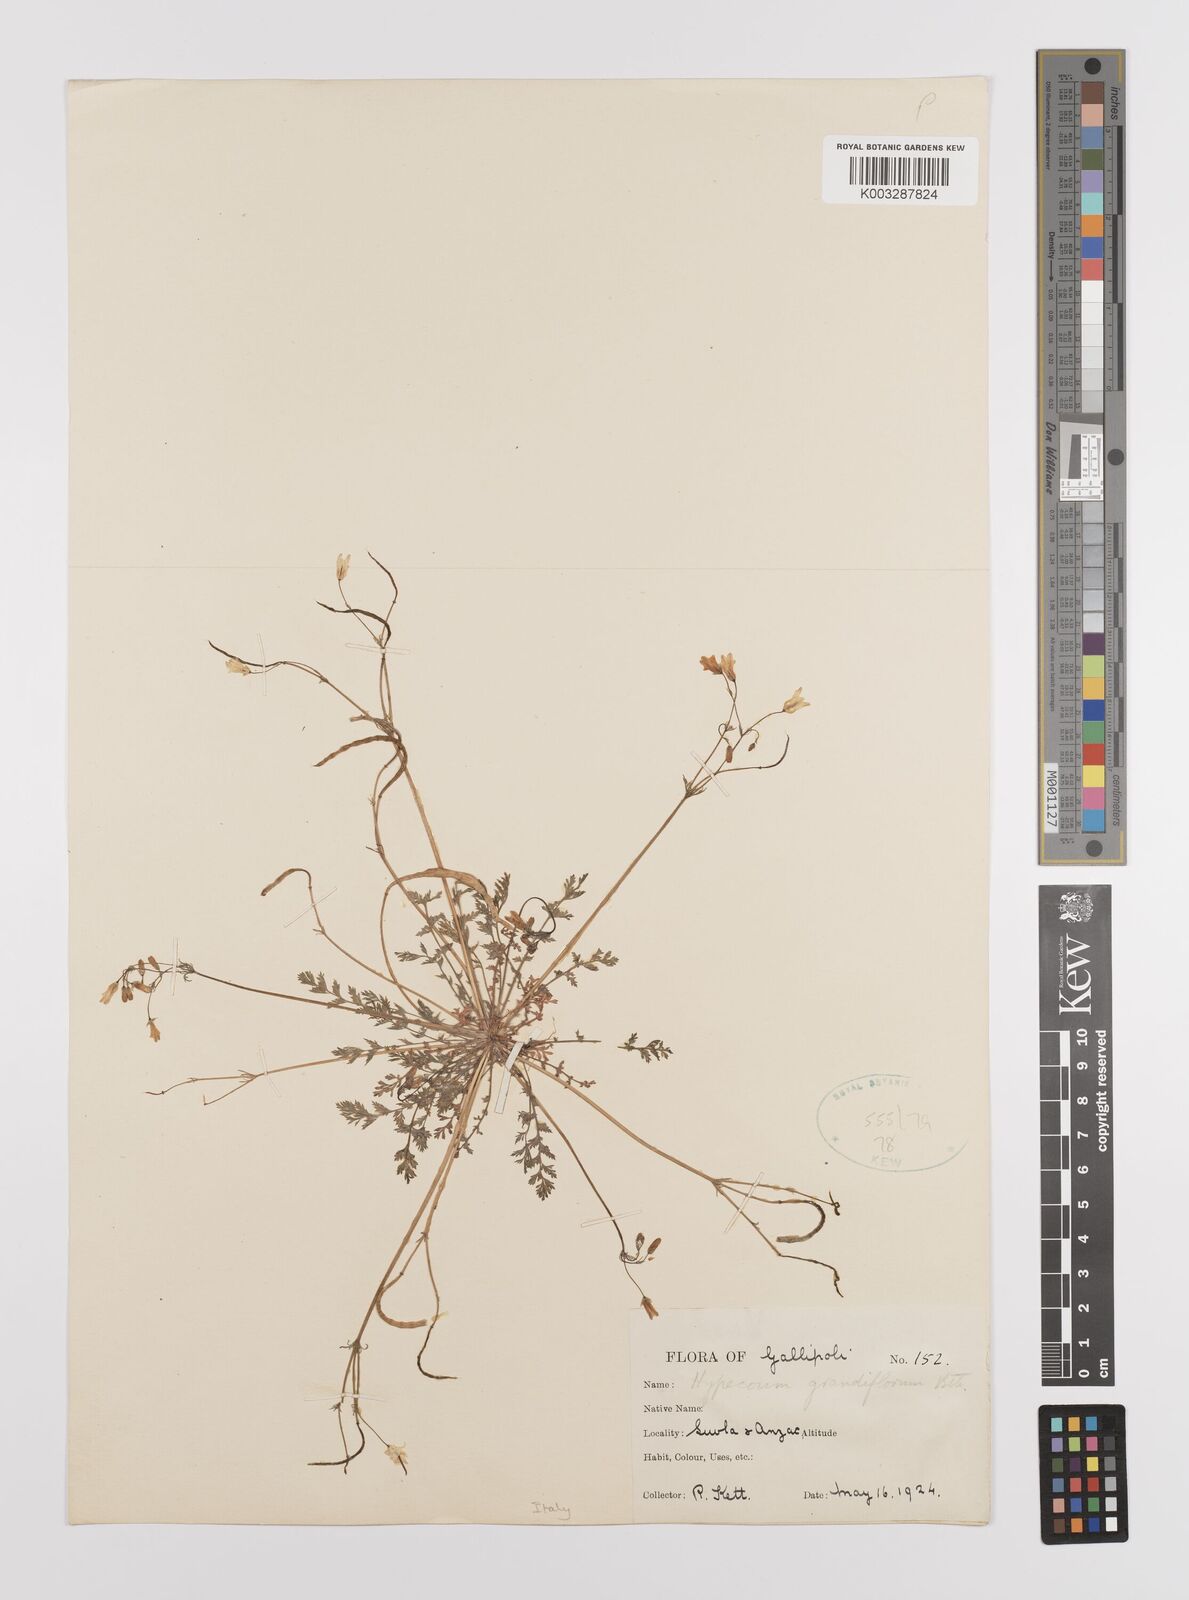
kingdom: Plantae
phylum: Tracheophyta
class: Magnoliopsida
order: Ranunculales
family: Papaveraceae
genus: Hypecoum
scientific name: Hypecoum imberbe
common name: Sicklefruit hypecoum
